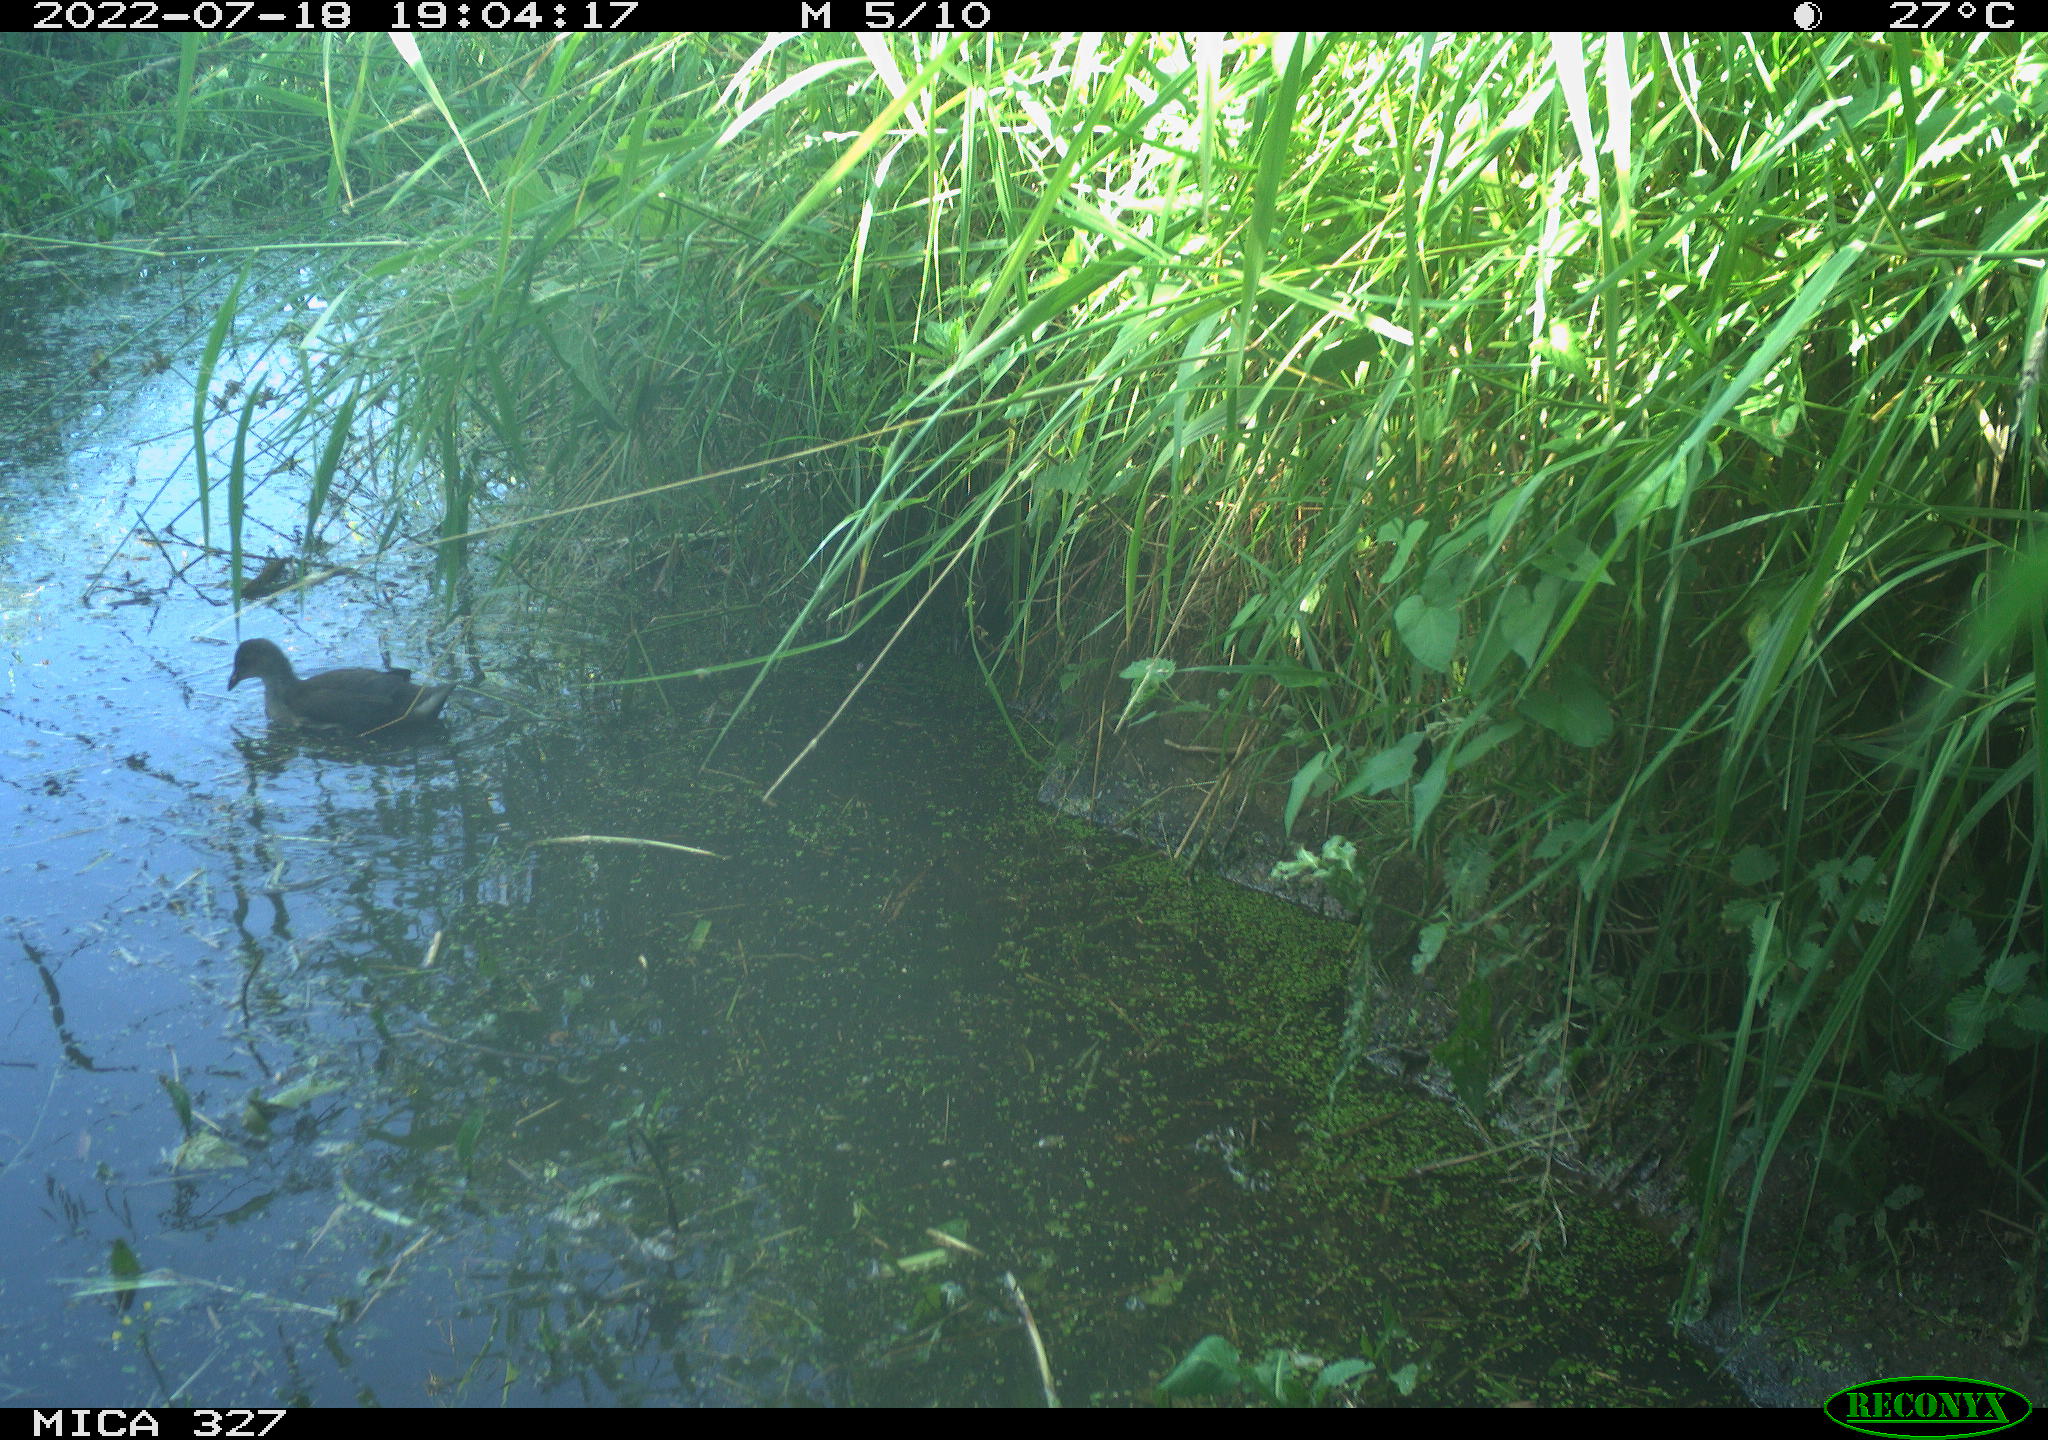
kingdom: Animalia
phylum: Chordata
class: Aves
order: Gruiformes
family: Rallidae
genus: Gallinula
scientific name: Gallinula chloropus
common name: Common moorhen
